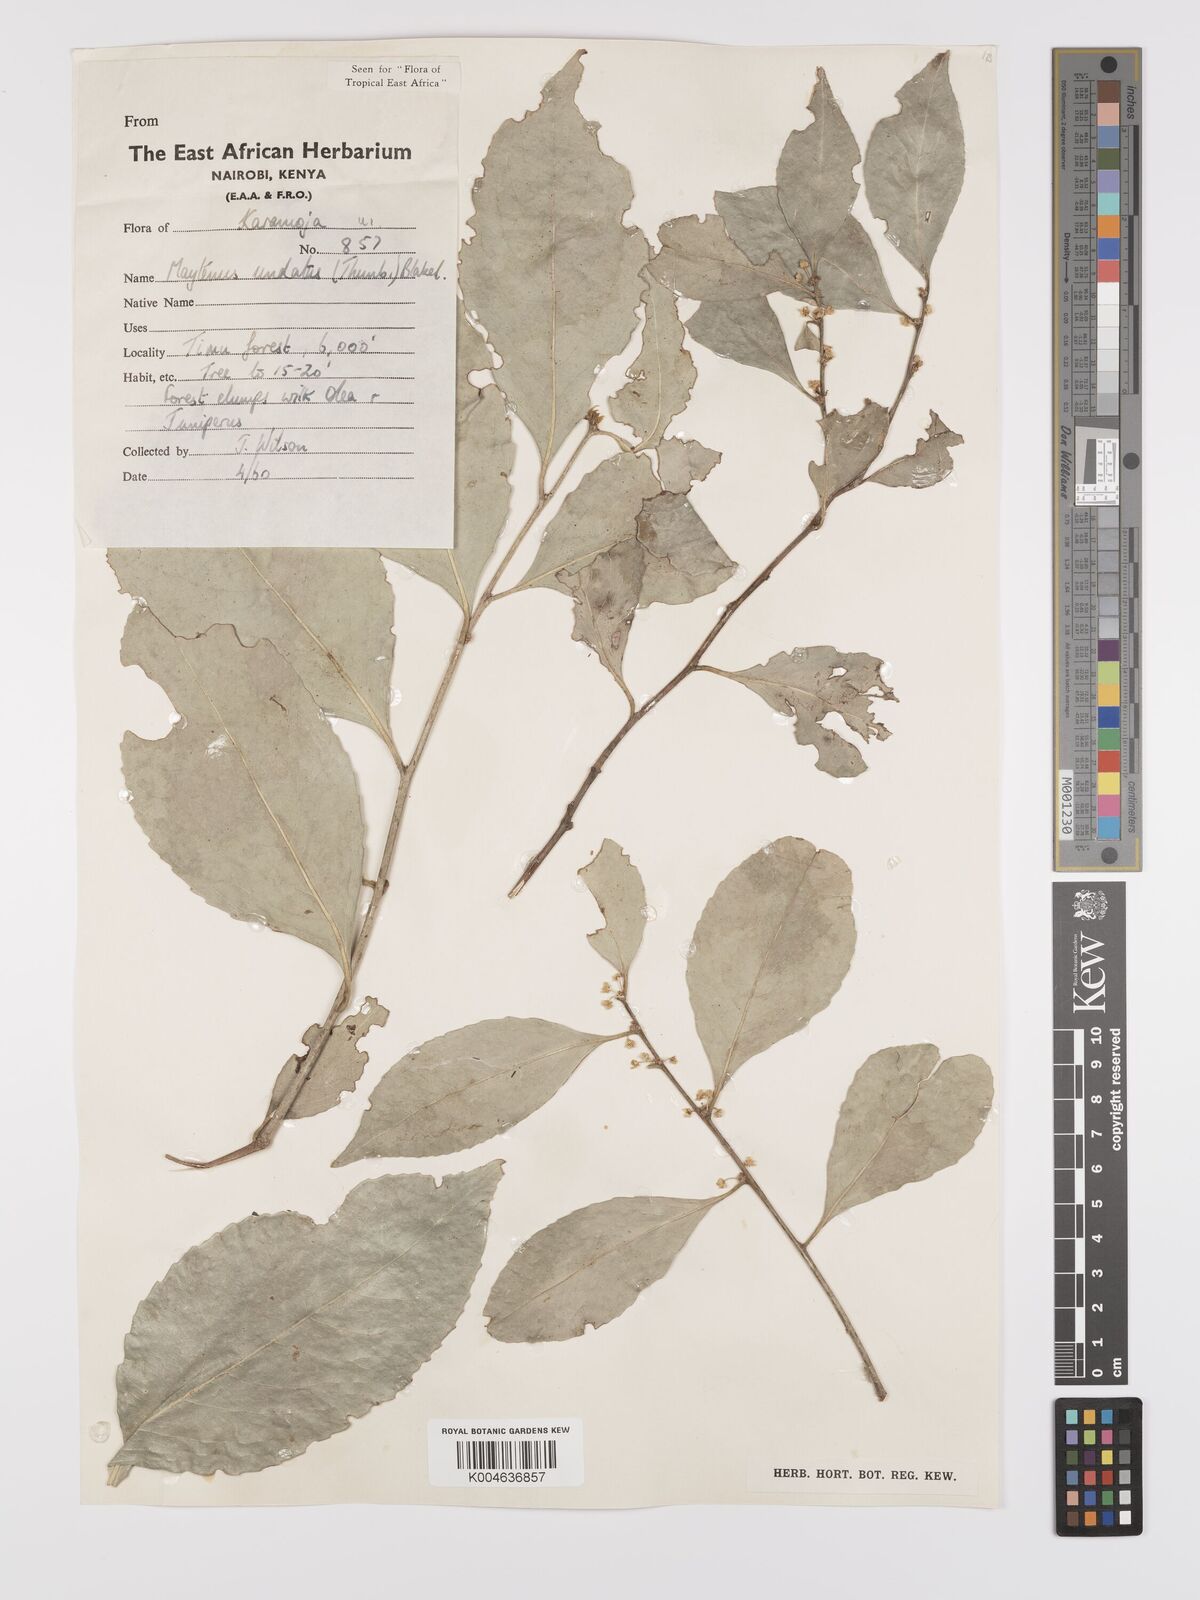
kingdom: Plantae
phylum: Tracheophyta
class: Magnoliopsida
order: Celastrales
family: Celastraceae
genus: Gymnosporia
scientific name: Gymnosporia undata
